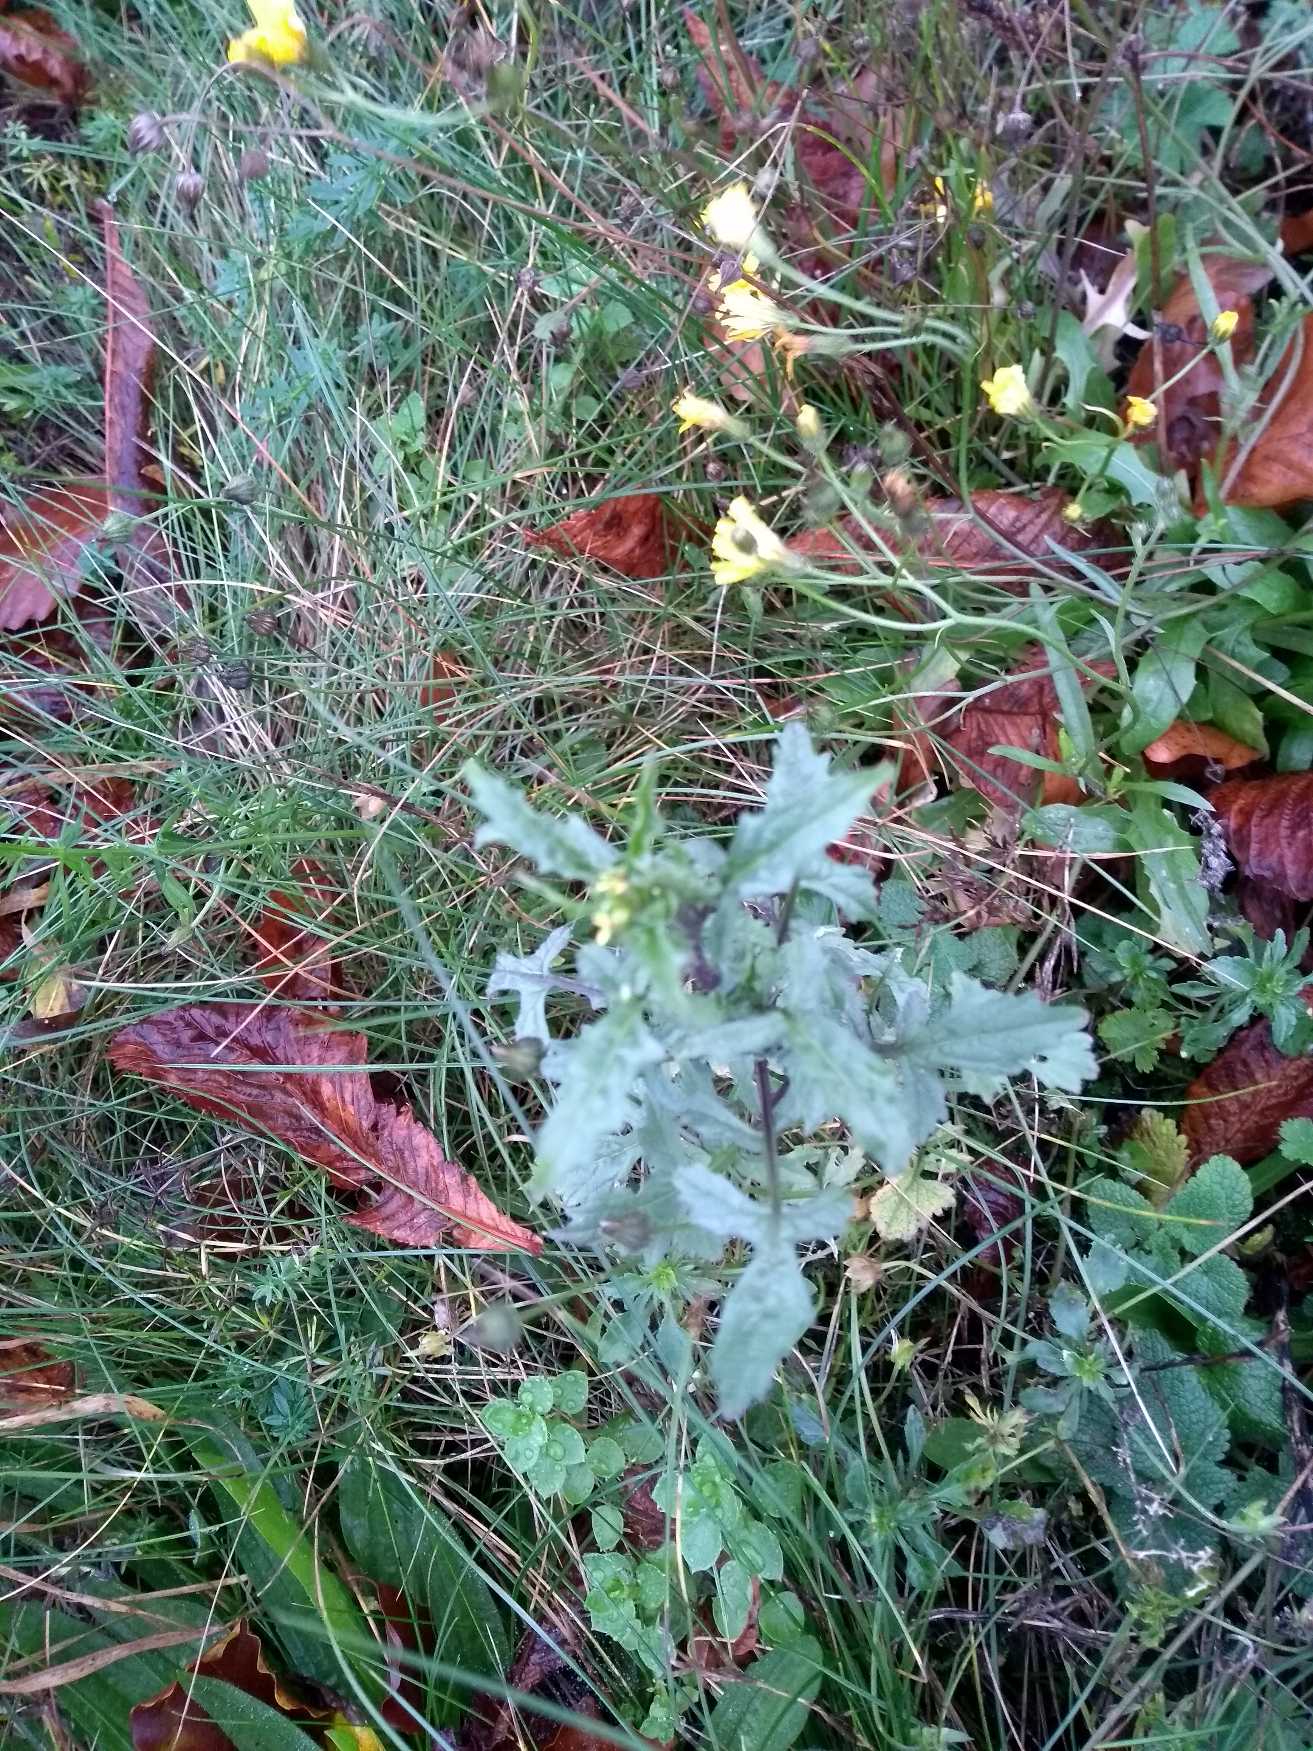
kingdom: Plantae
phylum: Tracheophyta
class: Magnoliopsida
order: Brassicales
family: Brassicaceae
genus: Sisymbrium
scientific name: Sisymbrium officinale
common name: Rank vejsennep
